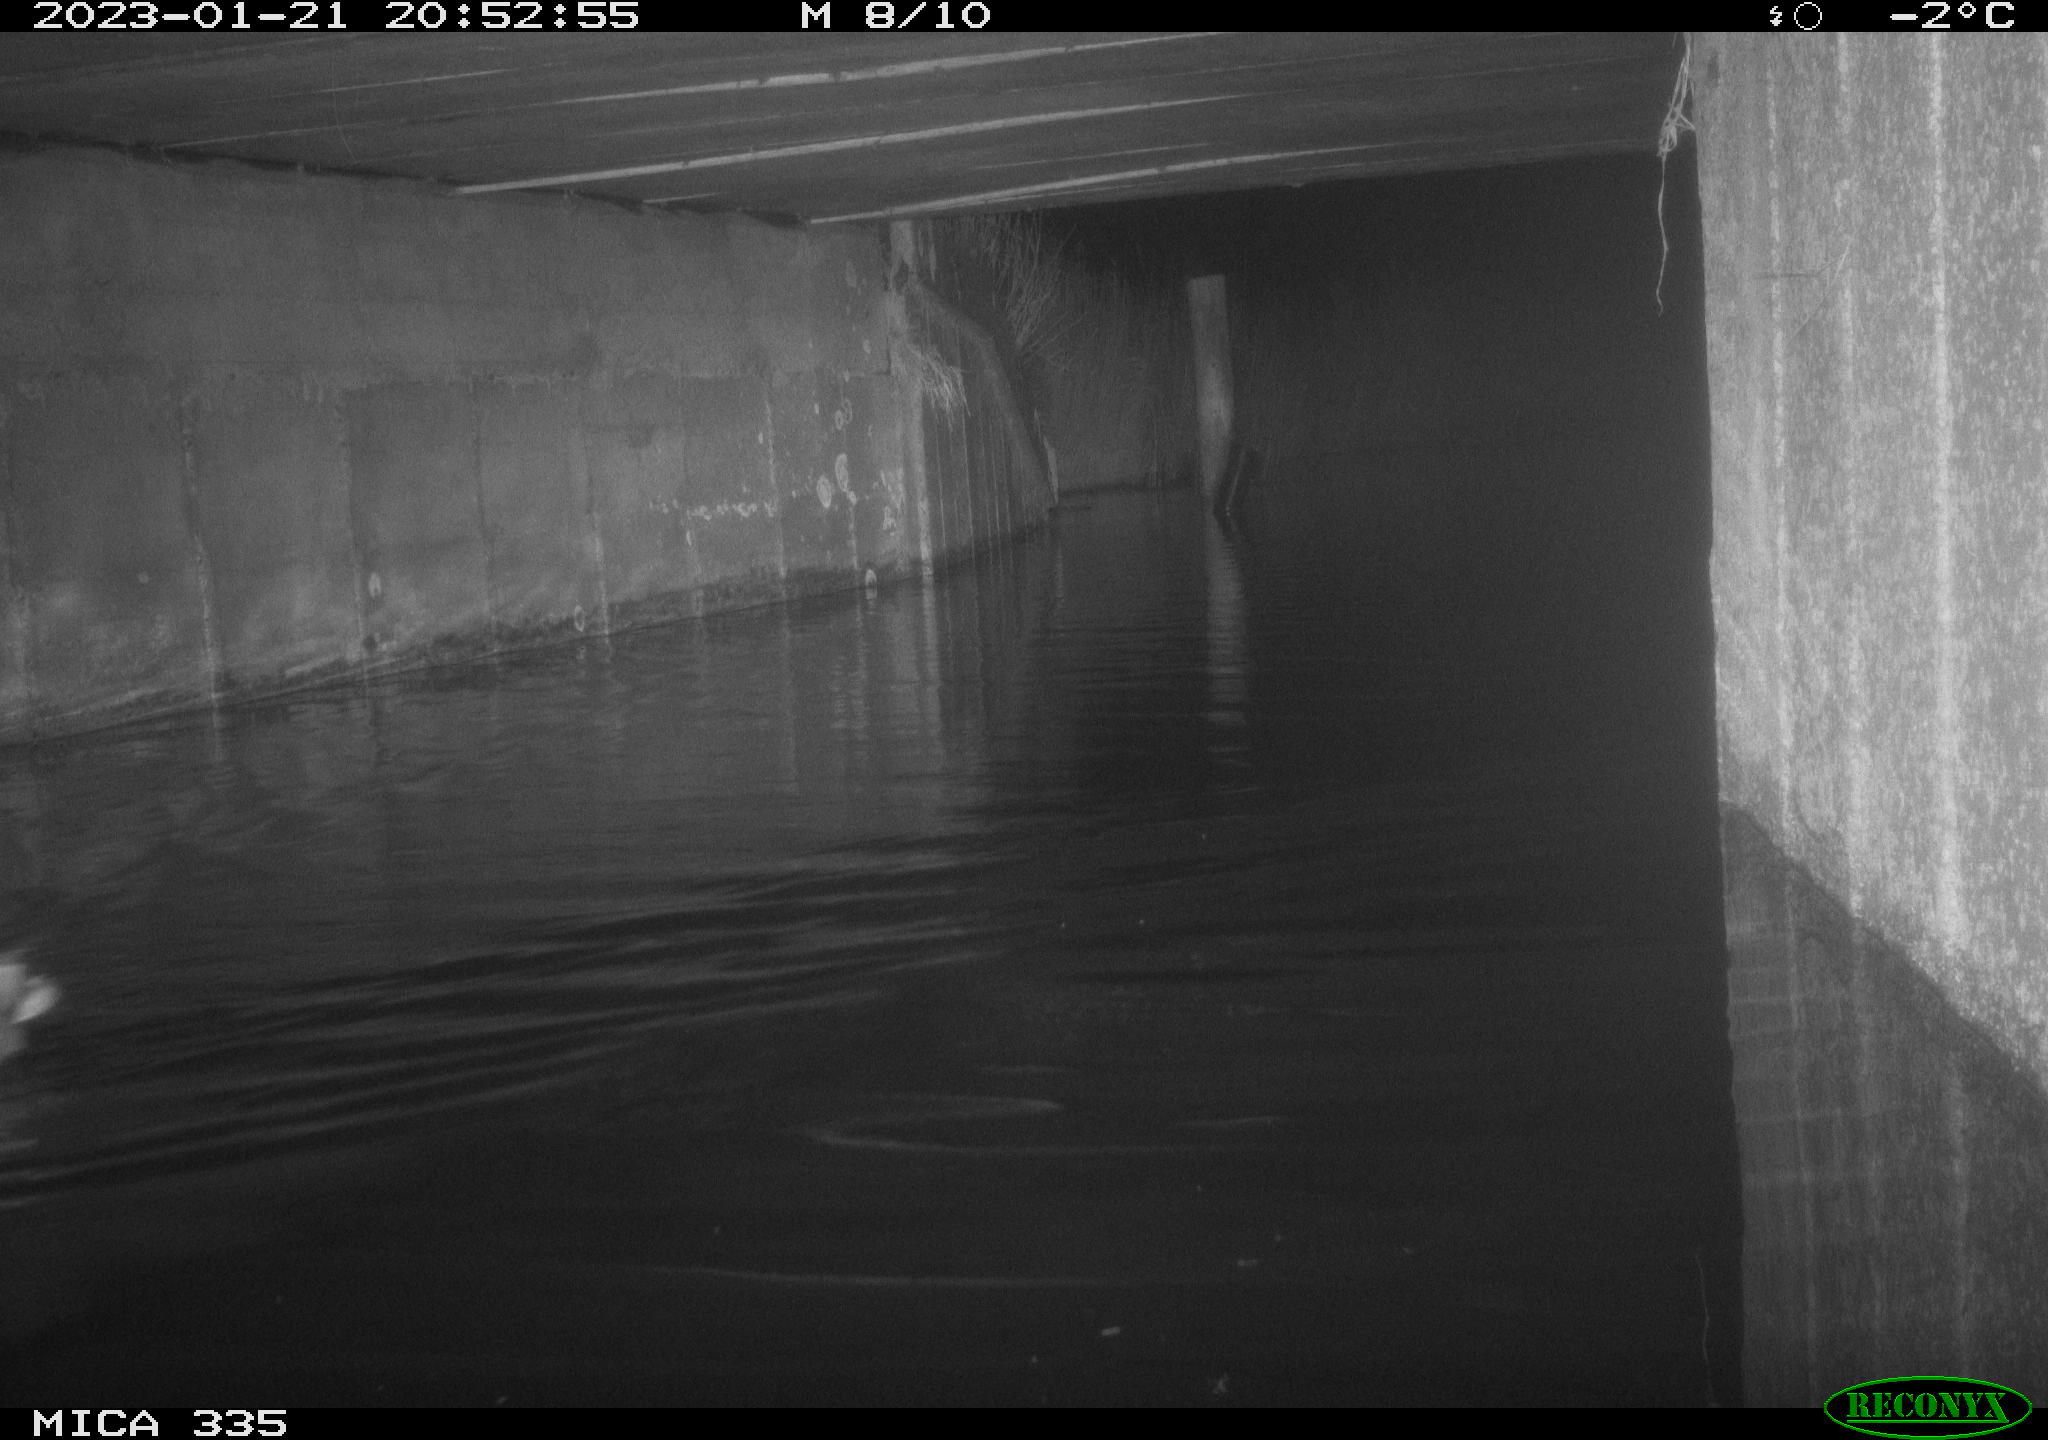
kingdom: Animalia
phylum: Chordata
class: Aves
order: Anseriformes
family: Anatidae
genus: Anas
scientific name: Anas
